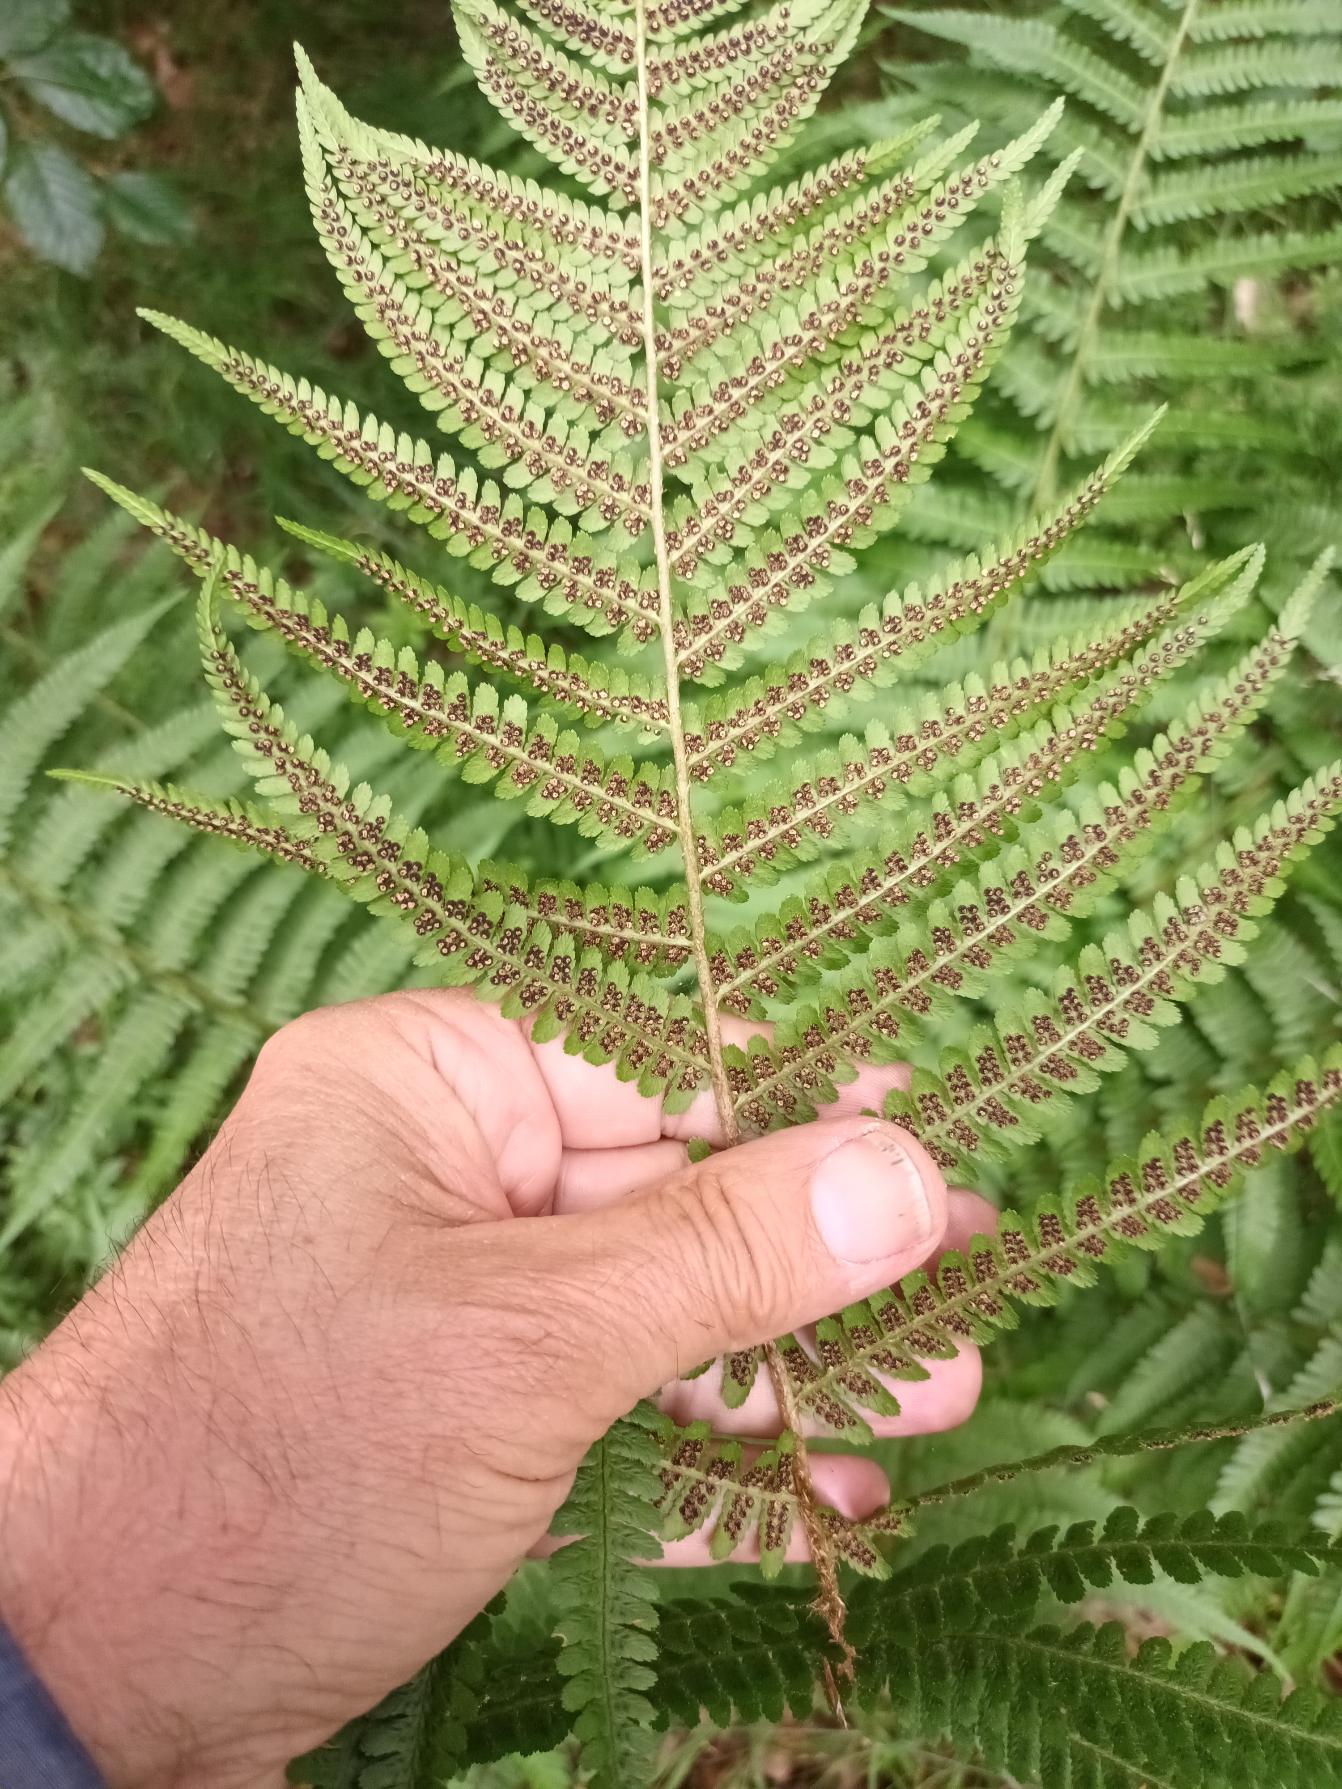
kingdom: Plantae
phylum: Tracheophyta
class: Polypodiopsida
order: Polypodiales
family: Dryopteridaceae
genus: Dryopteris
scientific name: Dryopteris filix-mas
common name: Almindelig mangeløv
